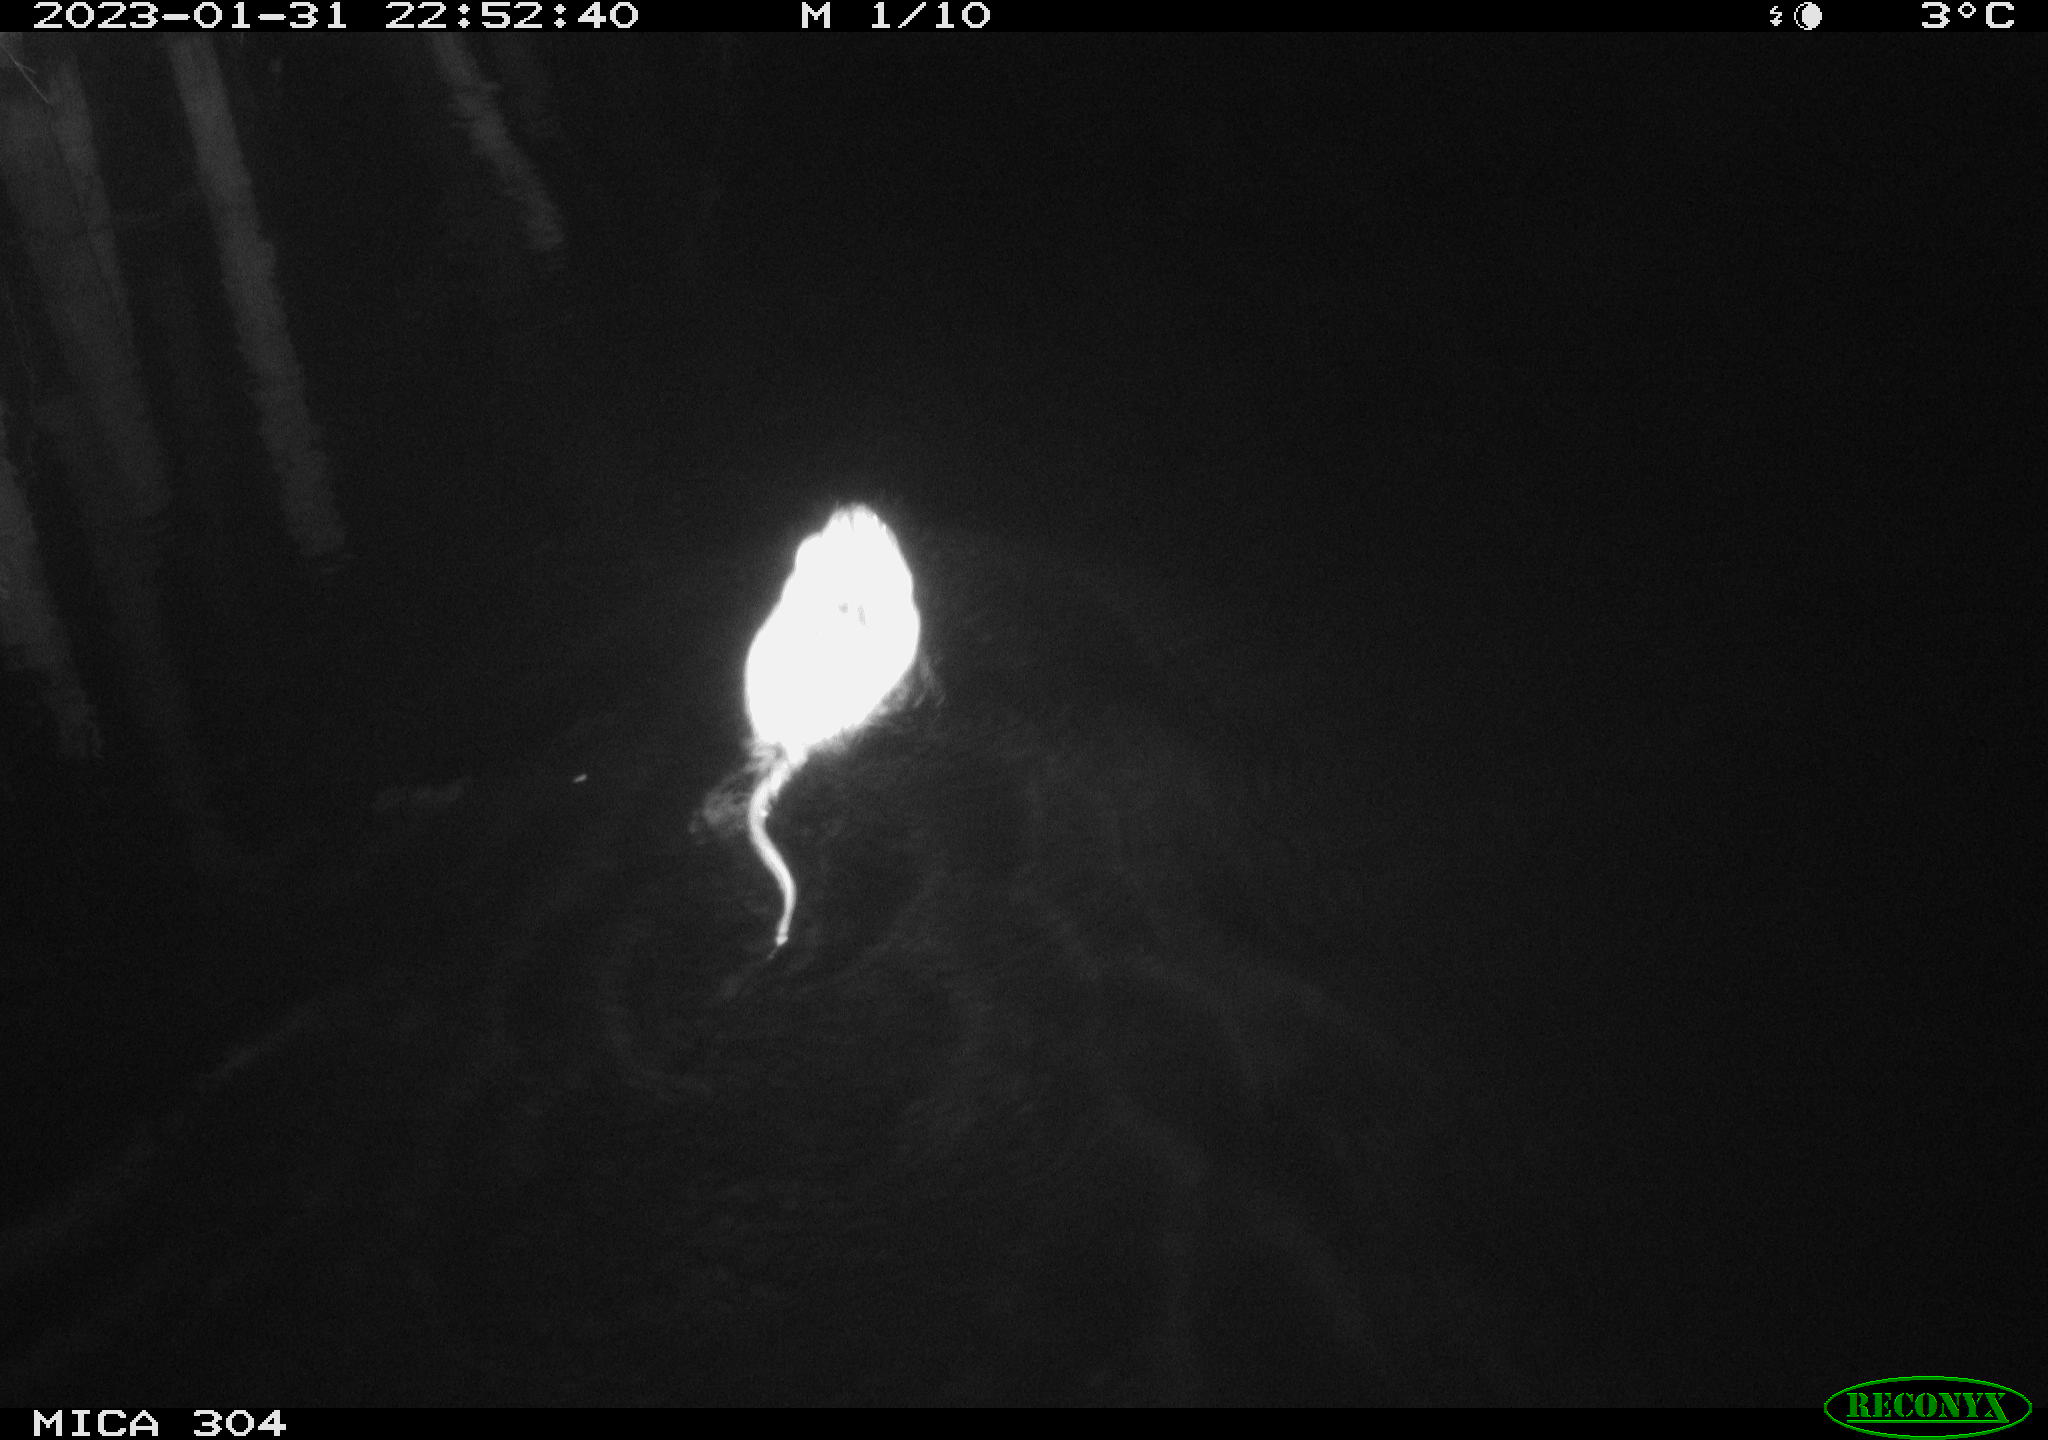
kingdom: Animalia
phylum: Chordata
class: Mammalia
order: Rodentia
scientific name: Rodentia
